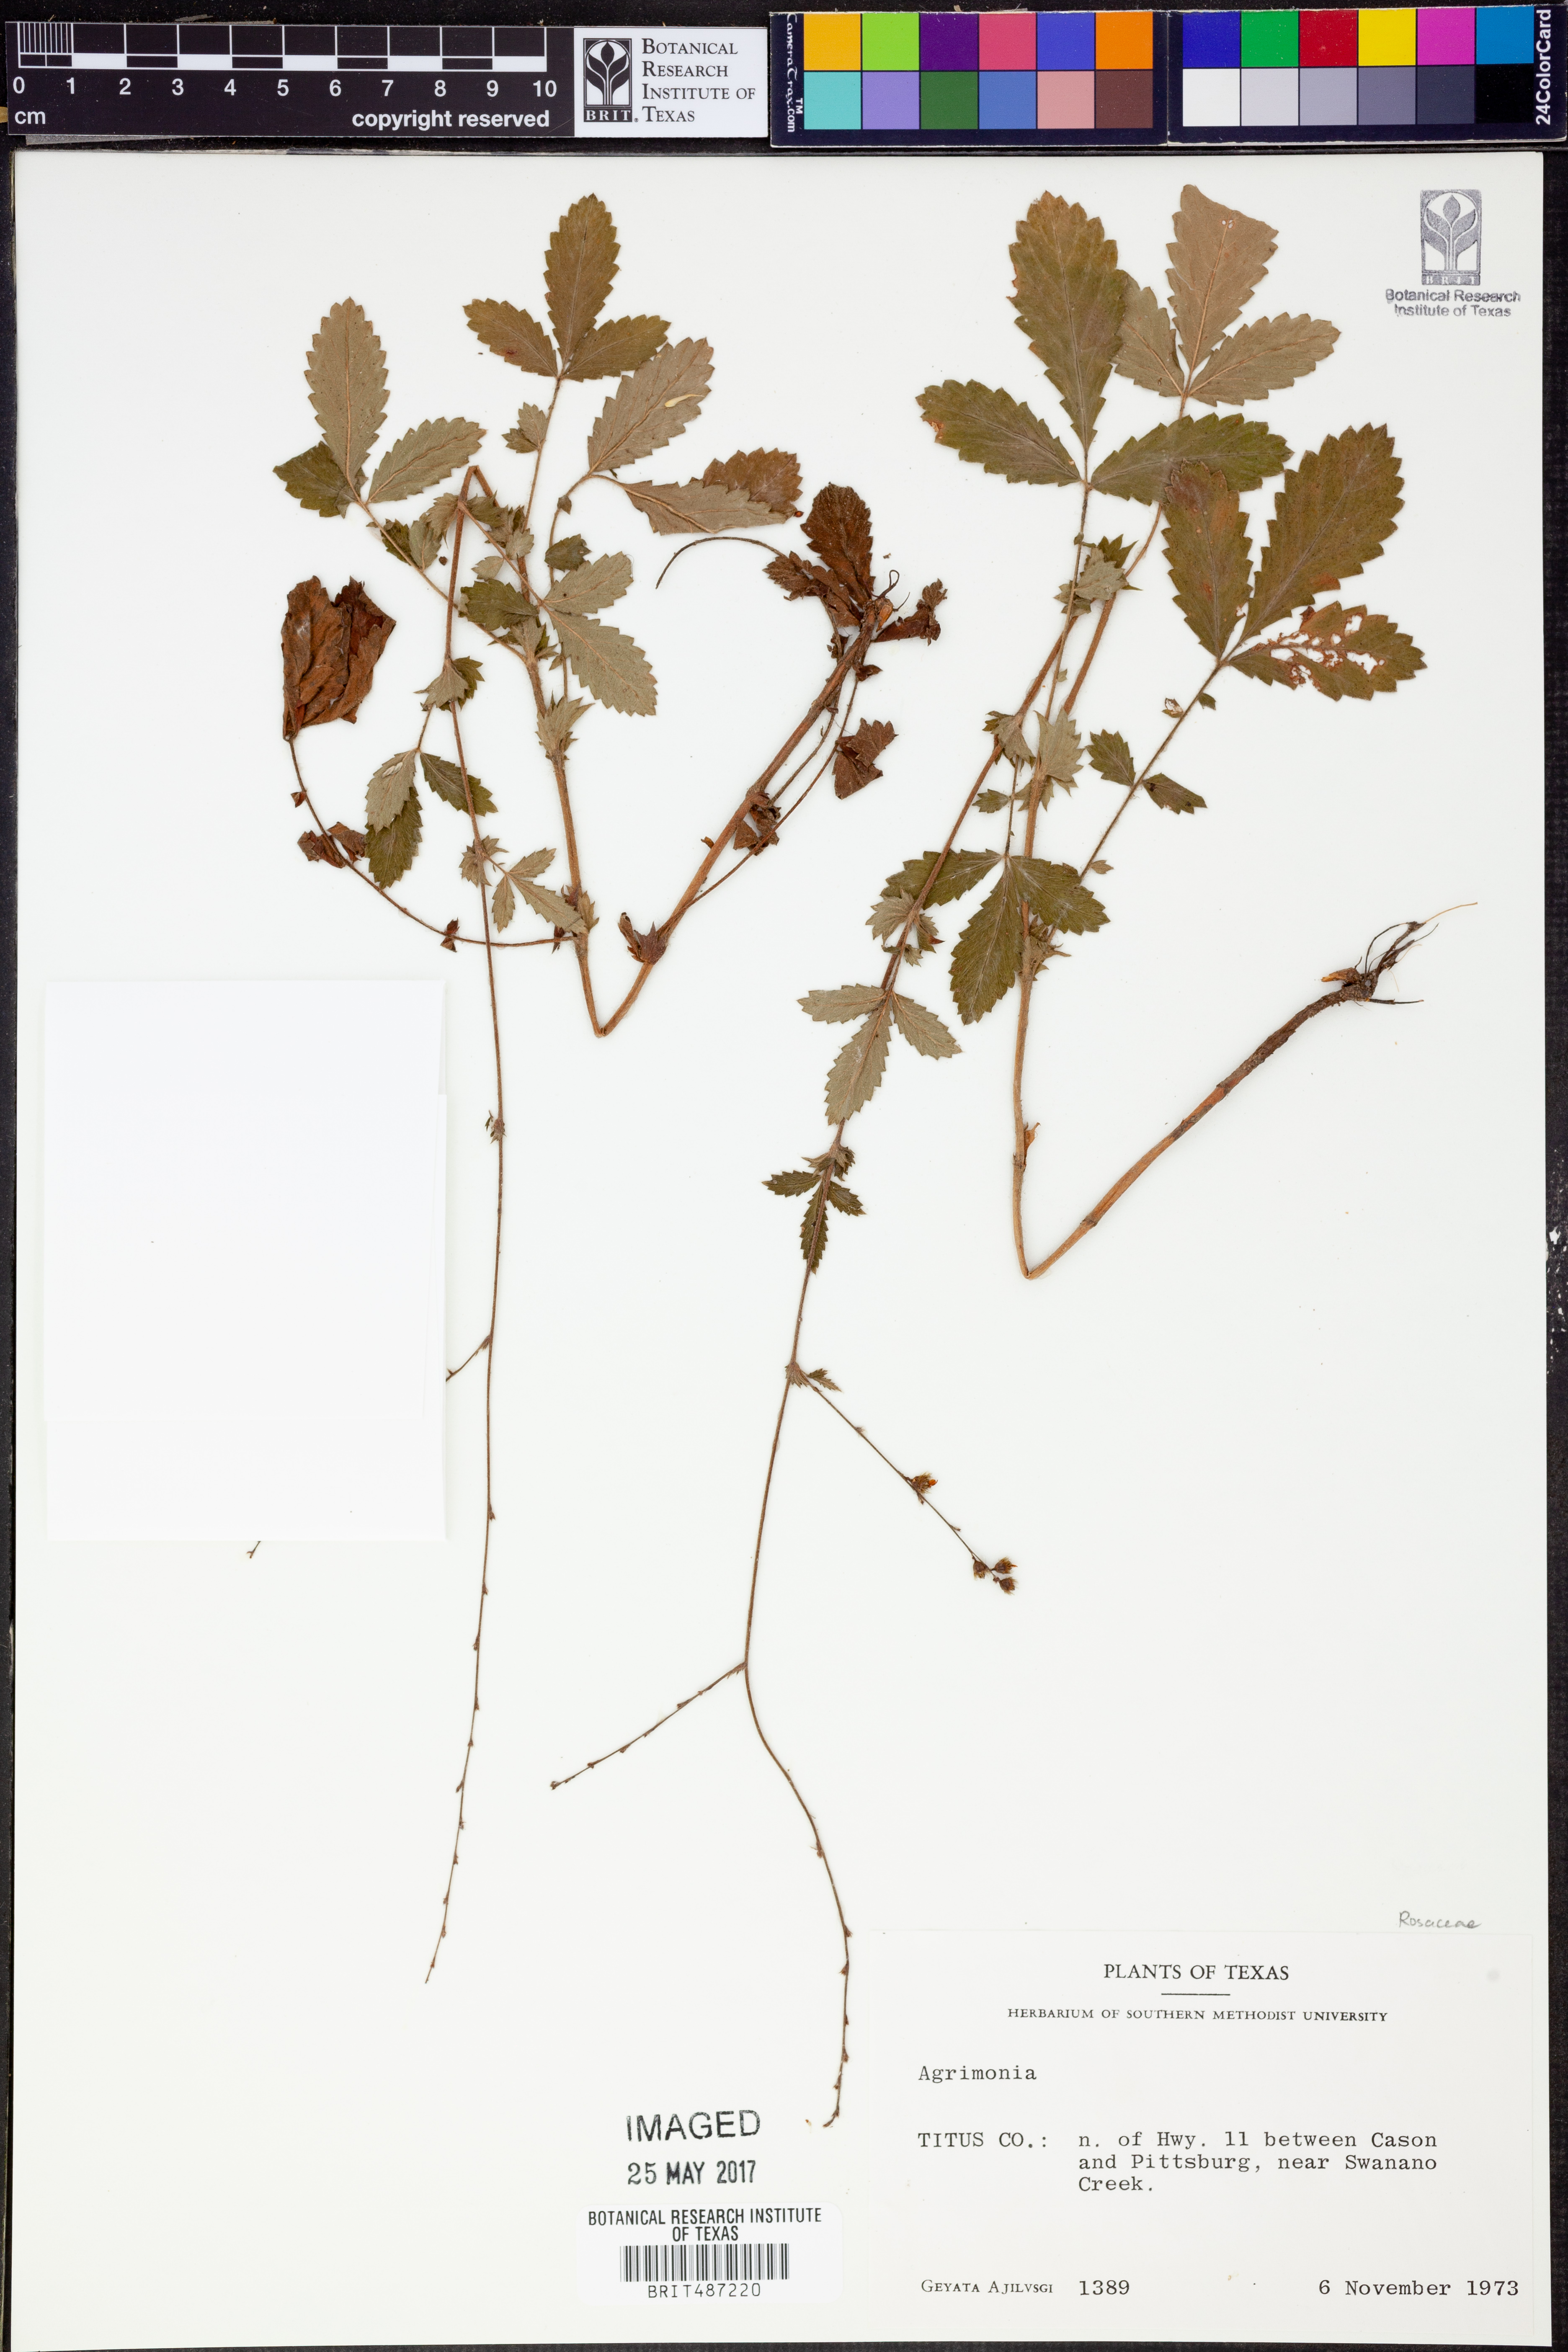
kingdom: Plantae
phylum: Tracheophyta
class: Magnoliopsida
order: Rosales
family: Rosaceae
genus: Agrimonia
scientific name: Agrimonia
